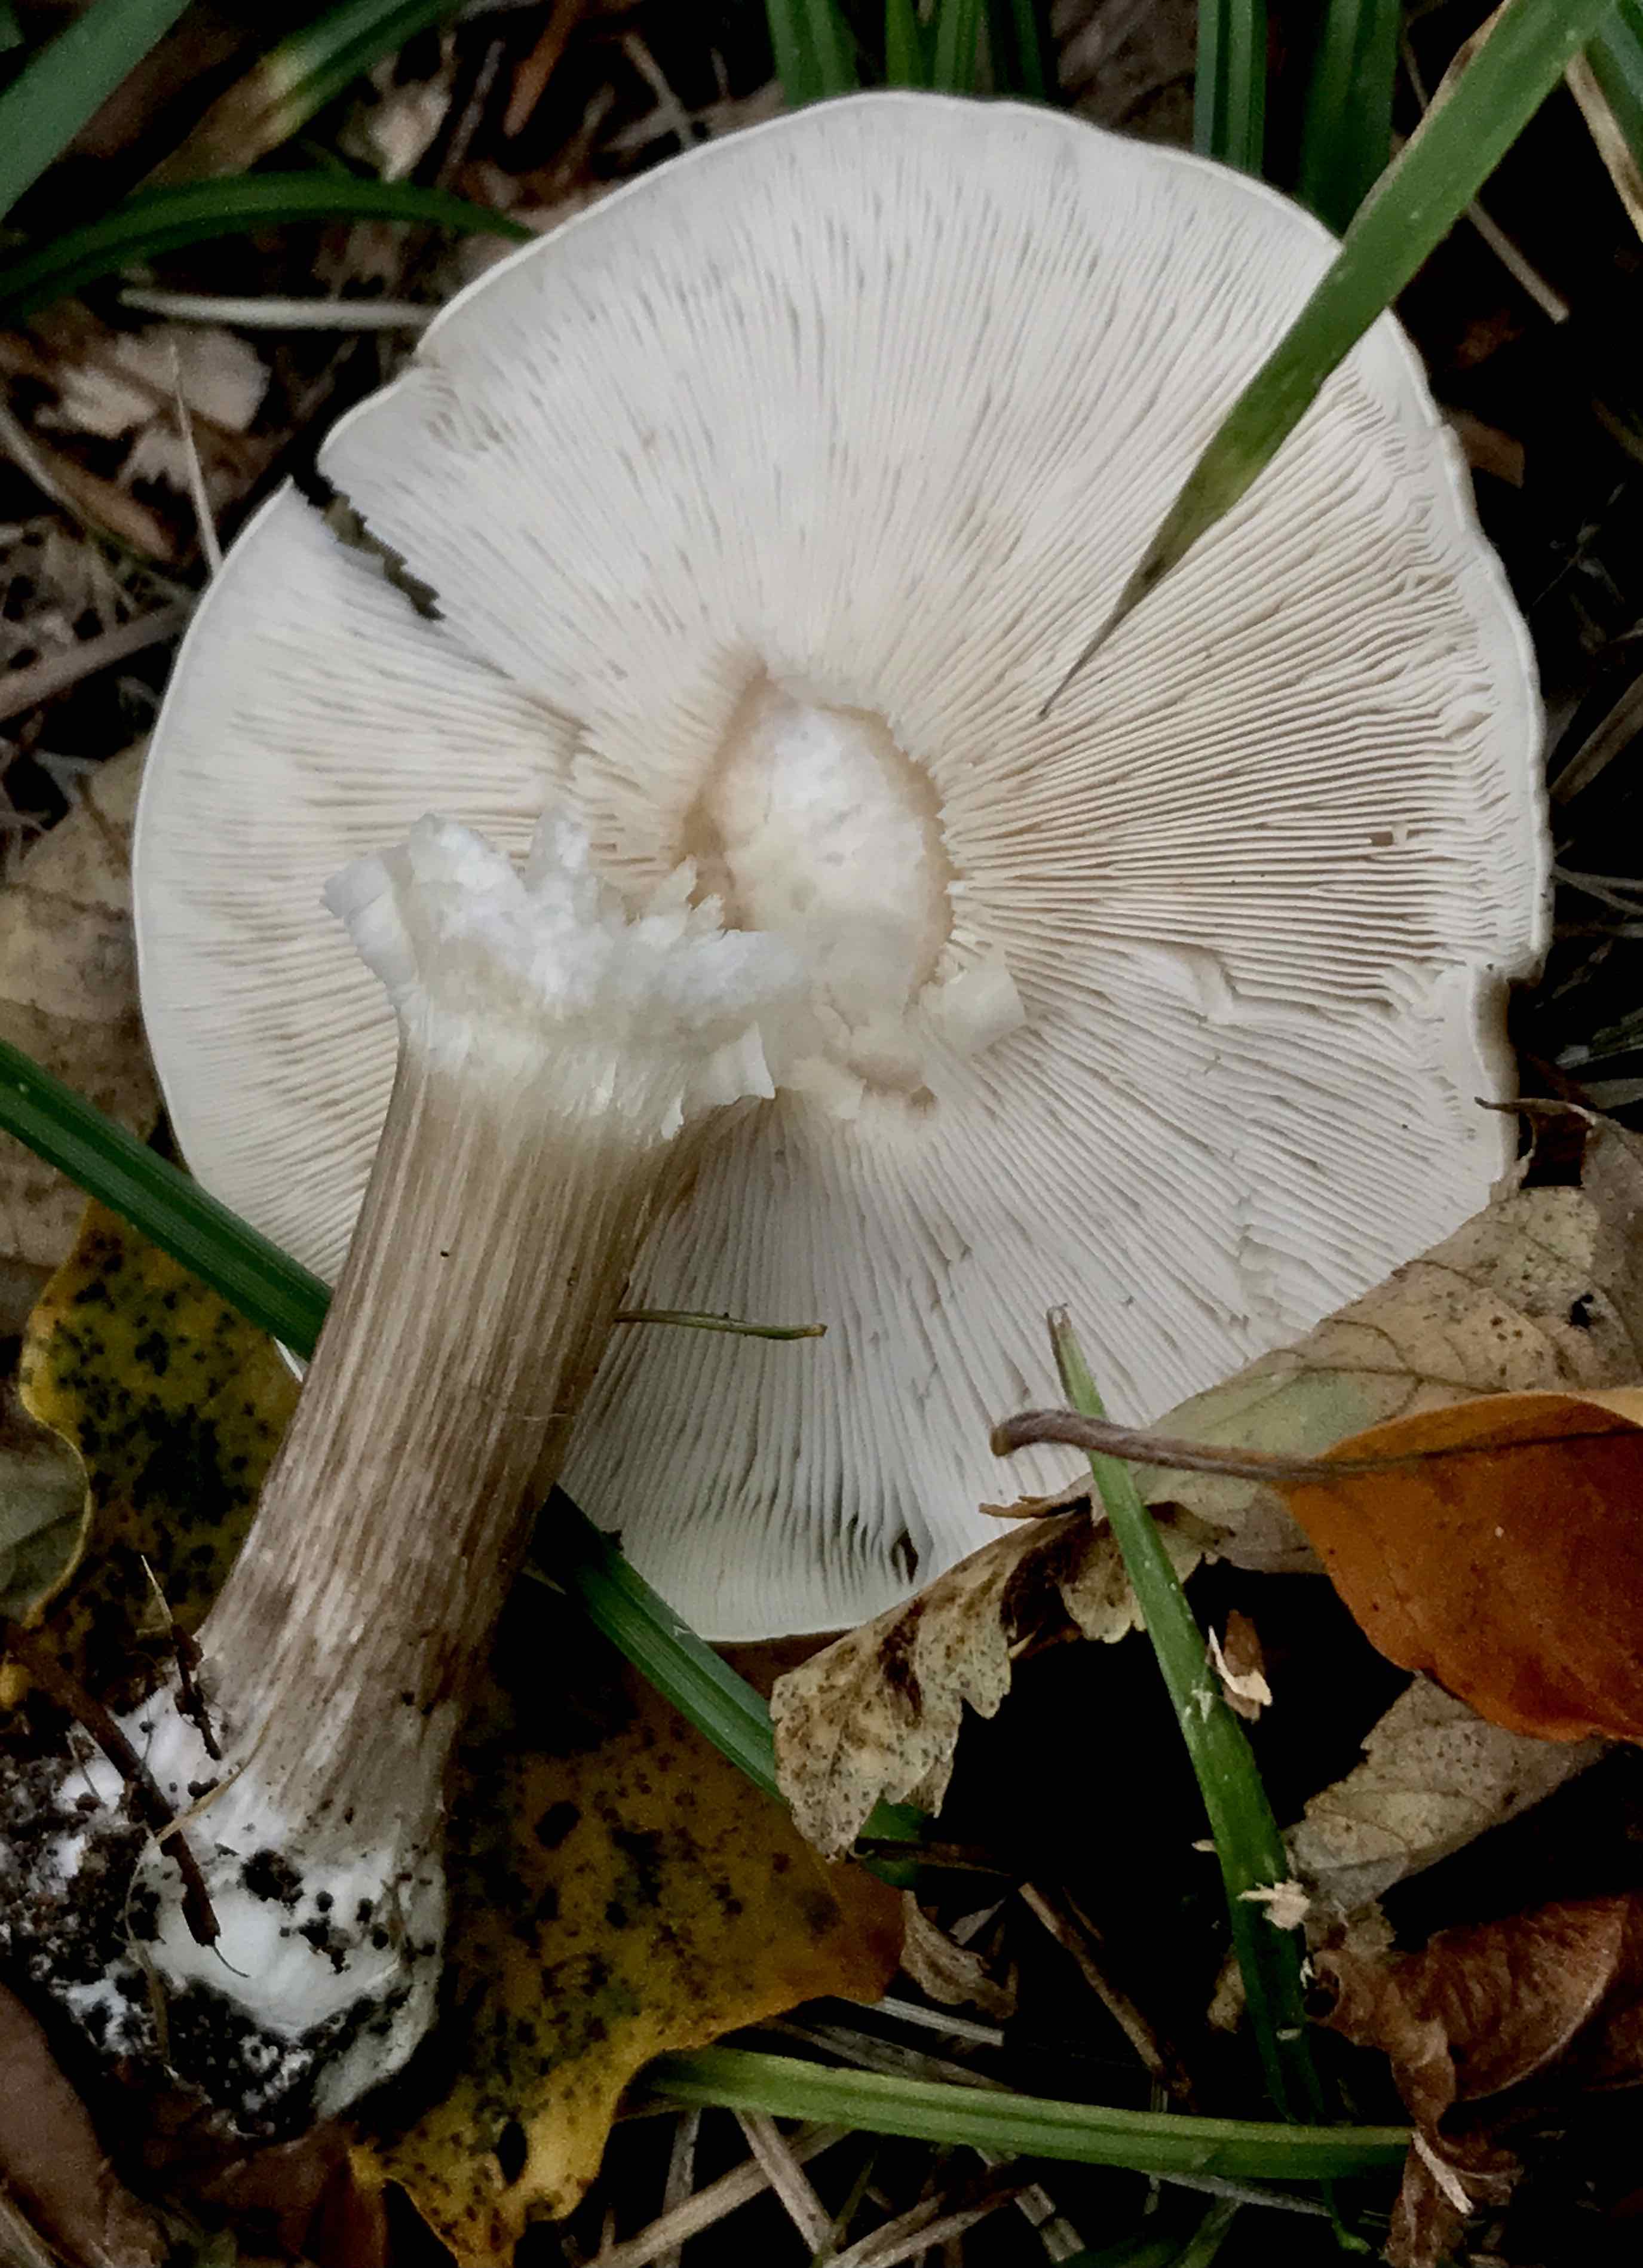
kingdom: Fungi
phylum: Basidiomycota
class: Agaricomycetes
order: Agaricales
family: Tricholomataceae
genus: Melanoleuca
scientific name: Melanoleuca grammopodia
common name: stribestokket munkehat
